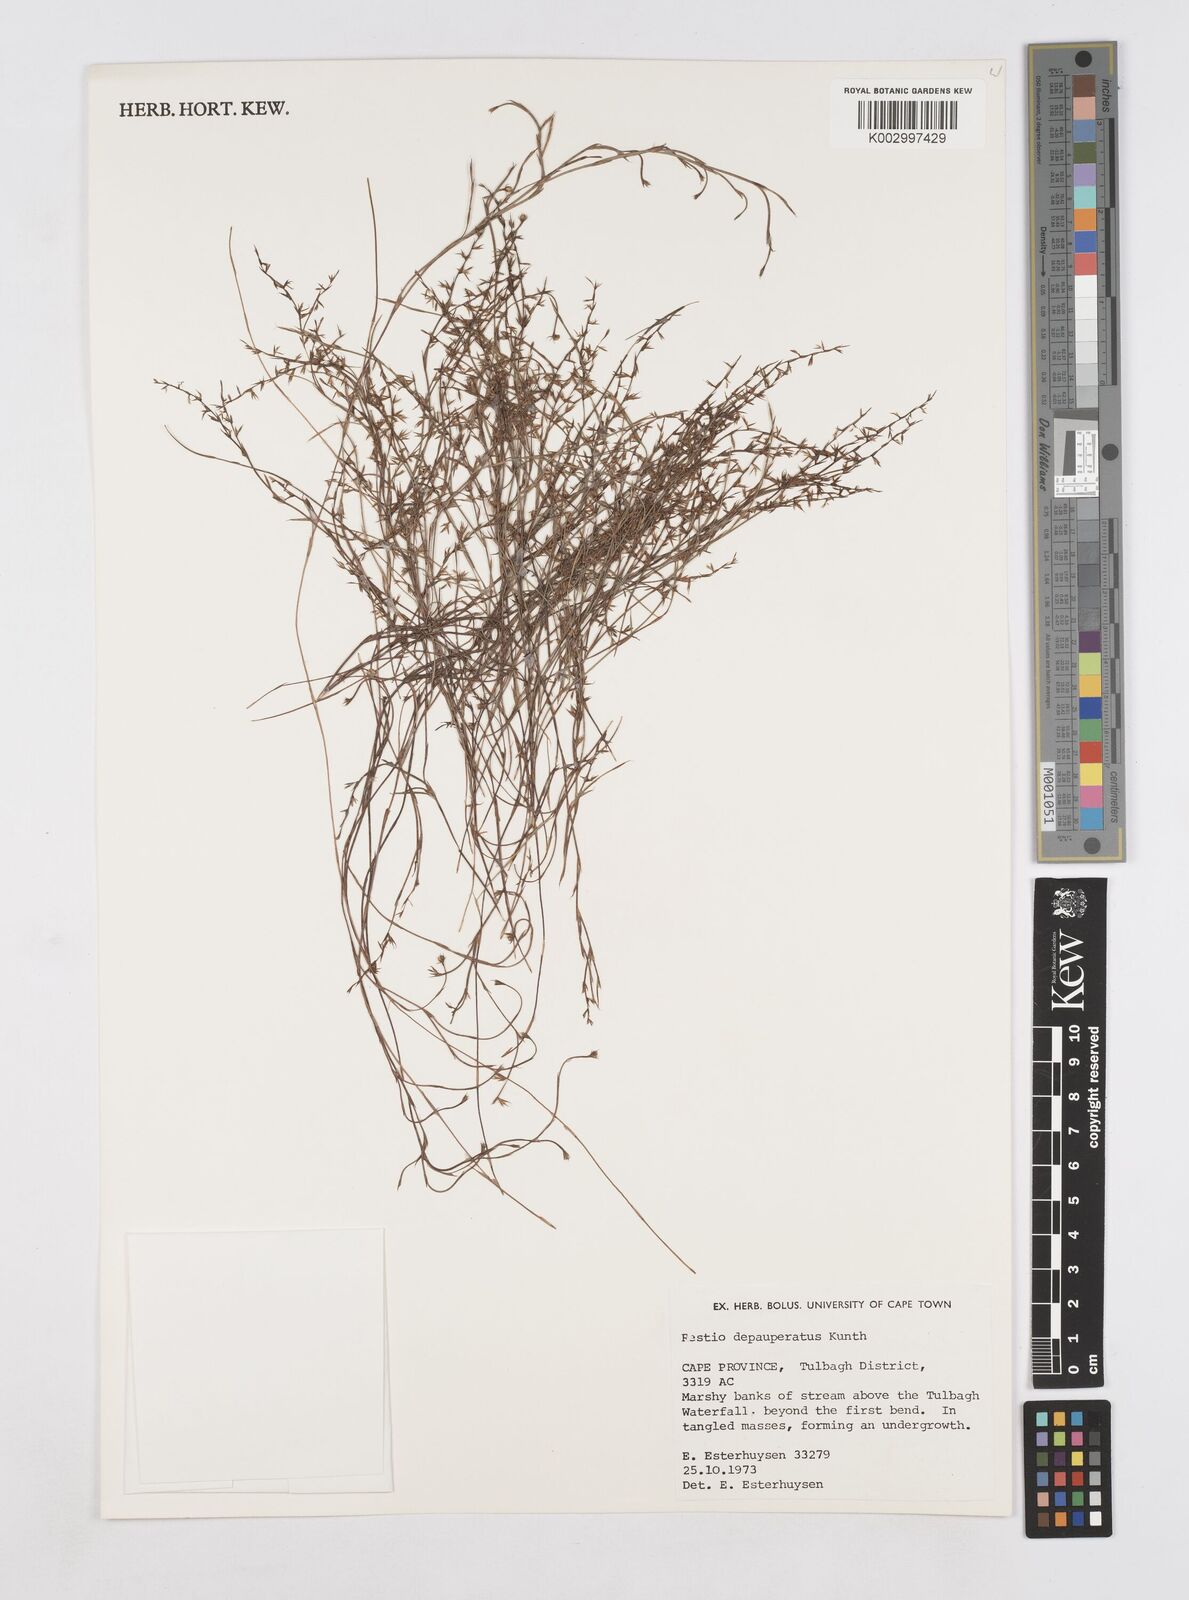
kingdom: Plantae
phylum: Tracheophyta
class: Liliopsida
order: Poales
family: Restionaceae
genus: Platycaulos
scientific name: Platycaulos depauperatus
